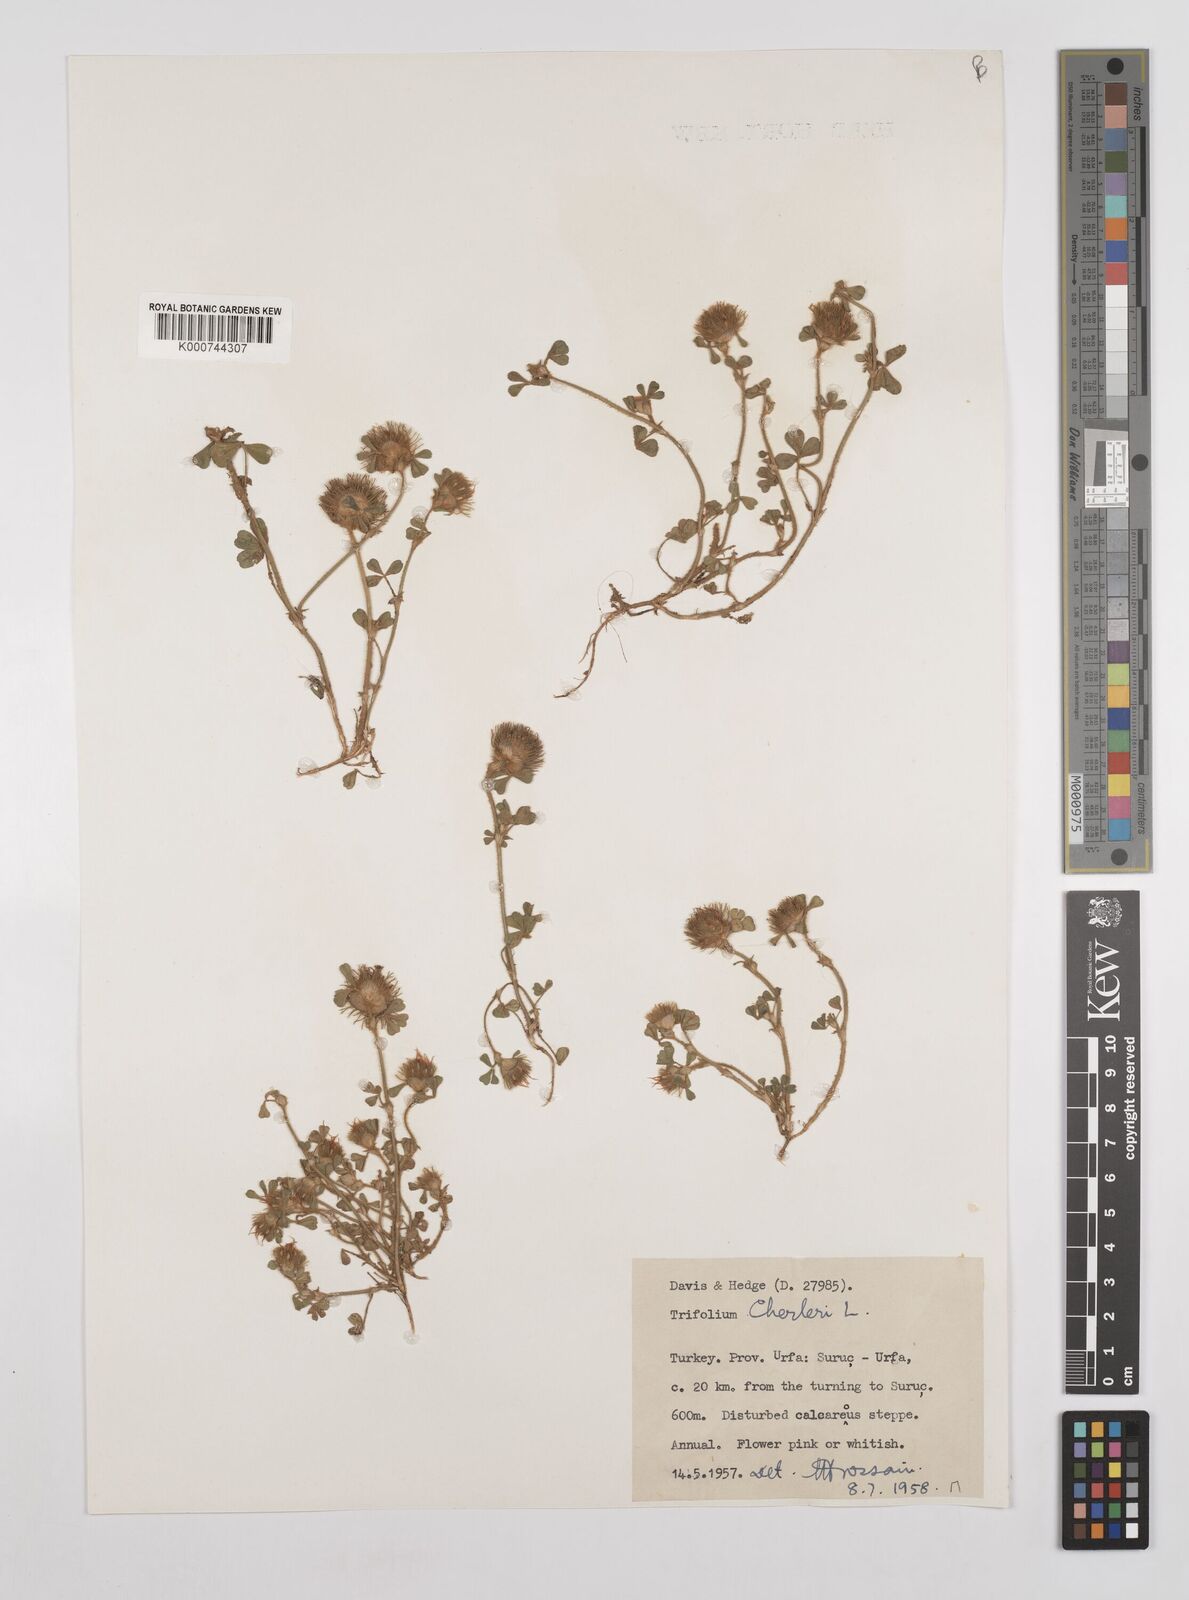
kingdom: Plantae
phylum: Tracheophyta
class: Magnoliopsida
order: Fabales
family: Fabaceae
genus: Trifolium
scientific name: Trifolium cherleri
